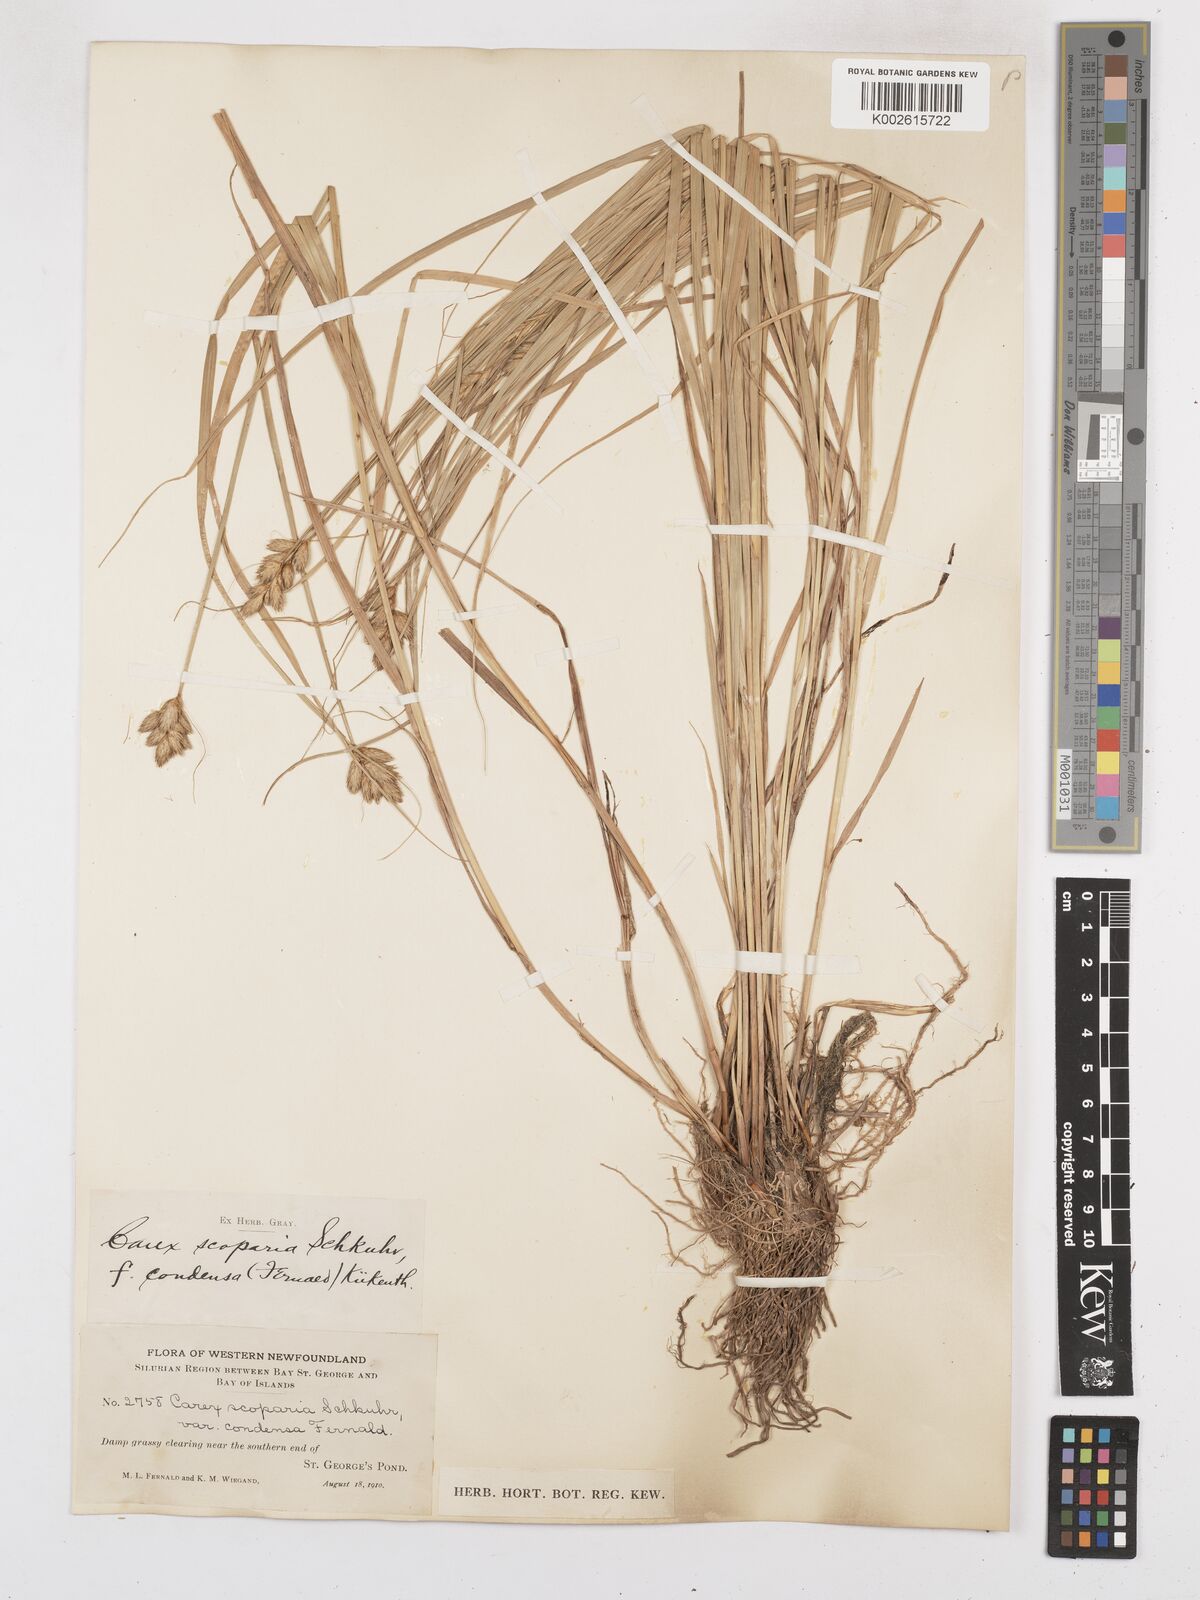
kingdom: Plantae
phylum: Tracheophyta
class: Liliopsida
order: Poales
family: Cyperaceae
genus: Carex
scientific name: Carex leporina
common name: Oval sedge
